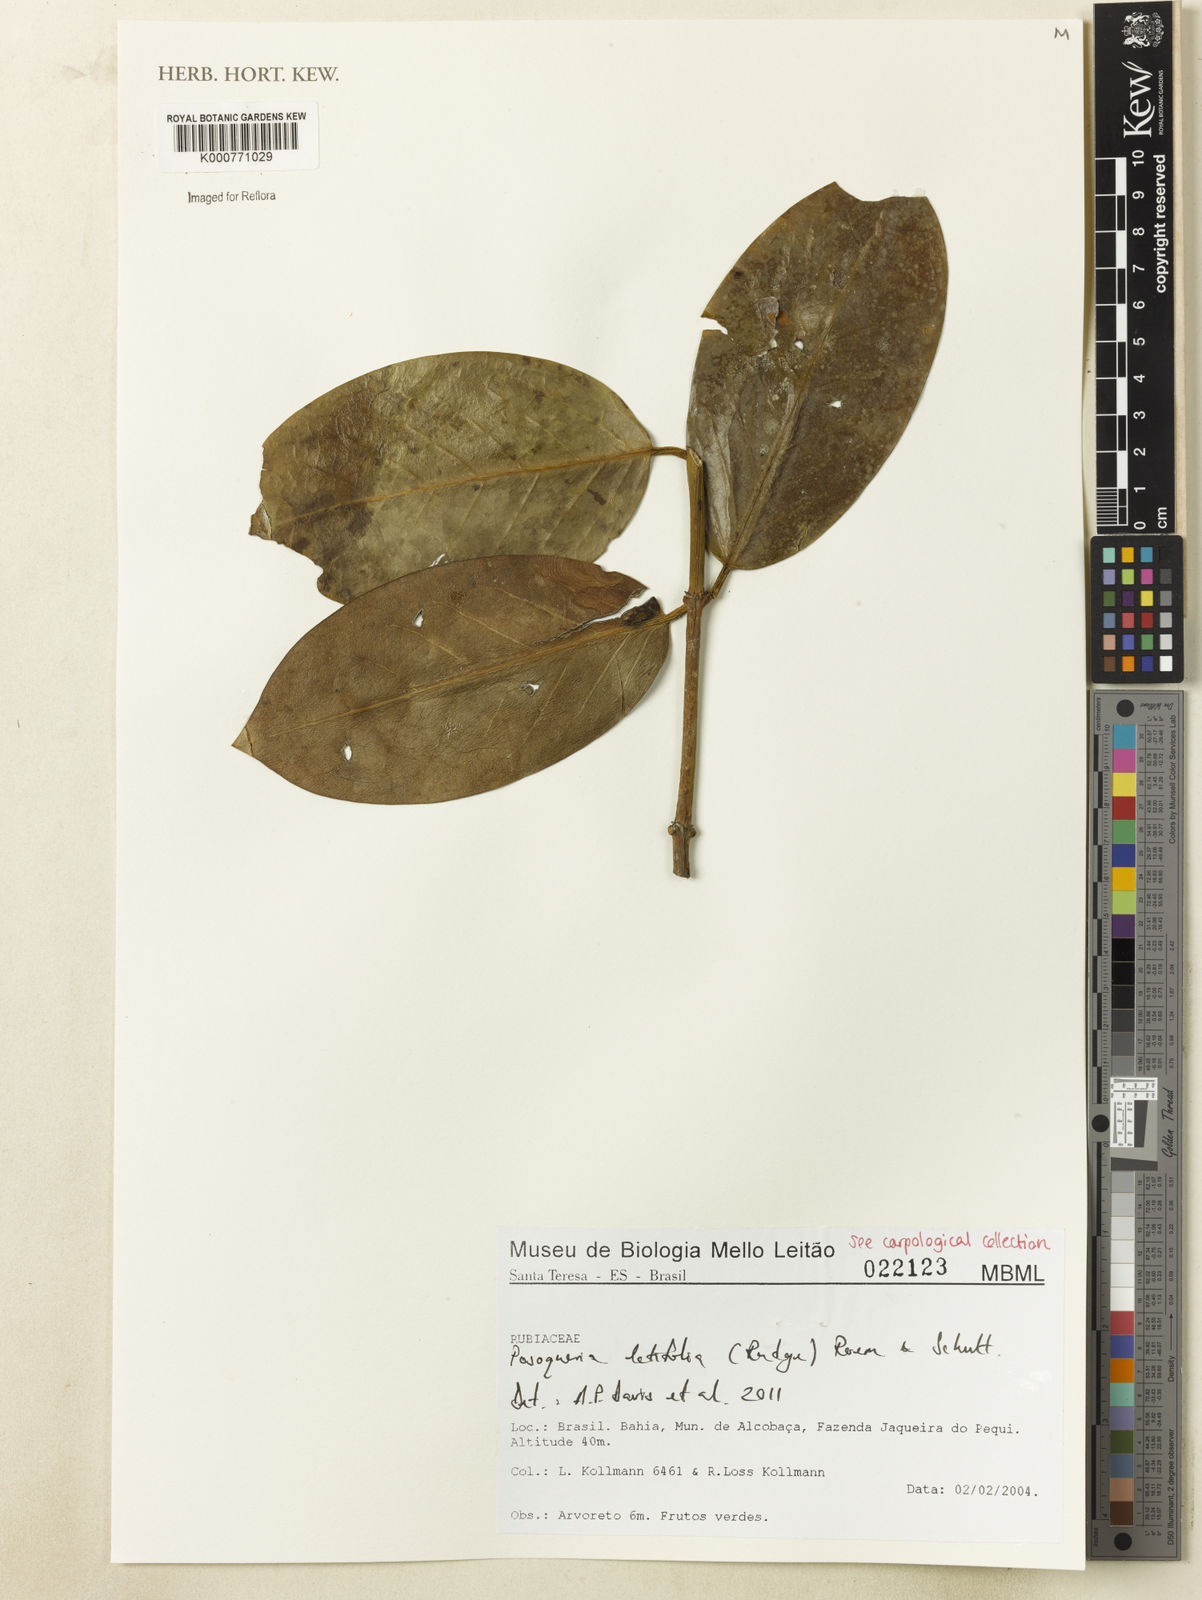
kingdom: Plantae
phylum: Tracheophyta
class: Magnoliopsida
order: Gentianales
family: Rubiaceae
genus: Posoqueria
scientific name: Posoqueria latifolia
